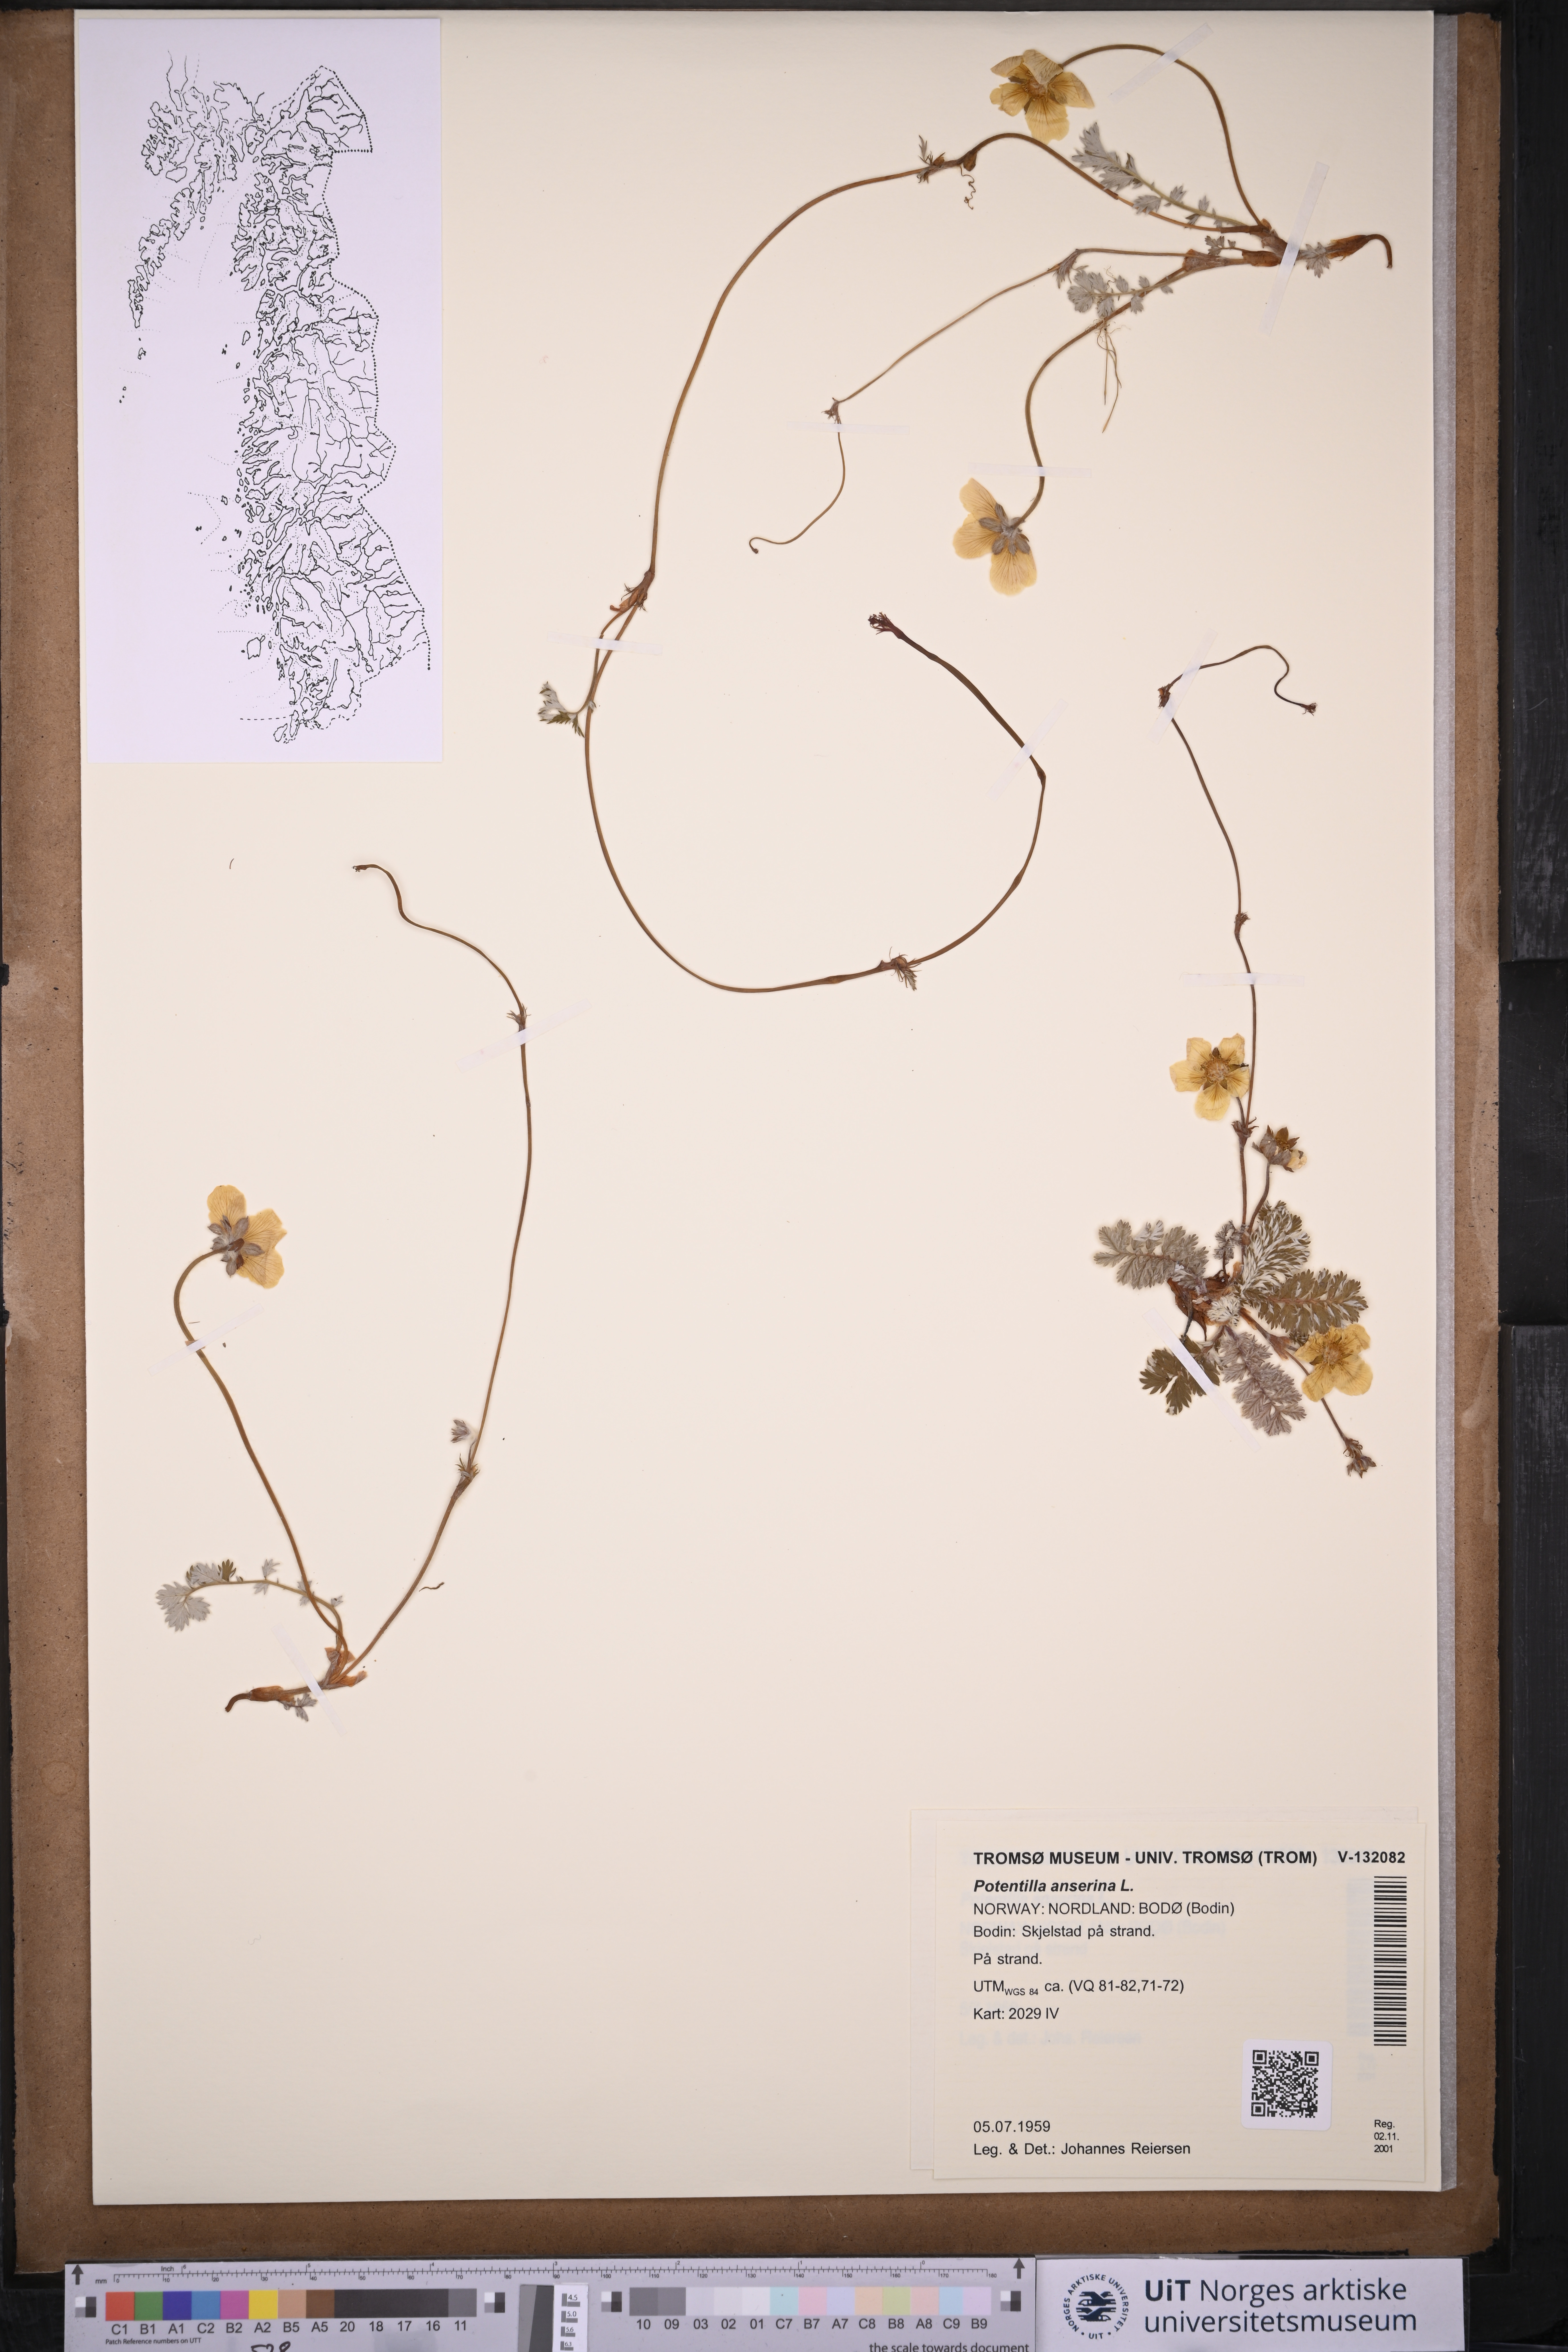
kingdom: Plantae
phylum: Tracheophyta
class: Magnoliopsida
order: Rosales
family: Rosaceae
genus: Argentina
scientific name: Argentina anserina
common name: Common silverweed
